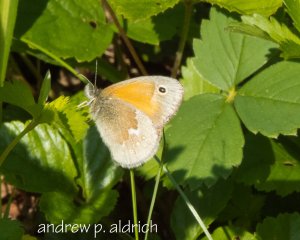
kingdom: Animalia
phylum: Arthropoda
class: Insecta
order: Lepidoptera
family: Nymphalidae
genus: Coenonympha
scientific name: Coenonympha tullia
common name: Large Heath
